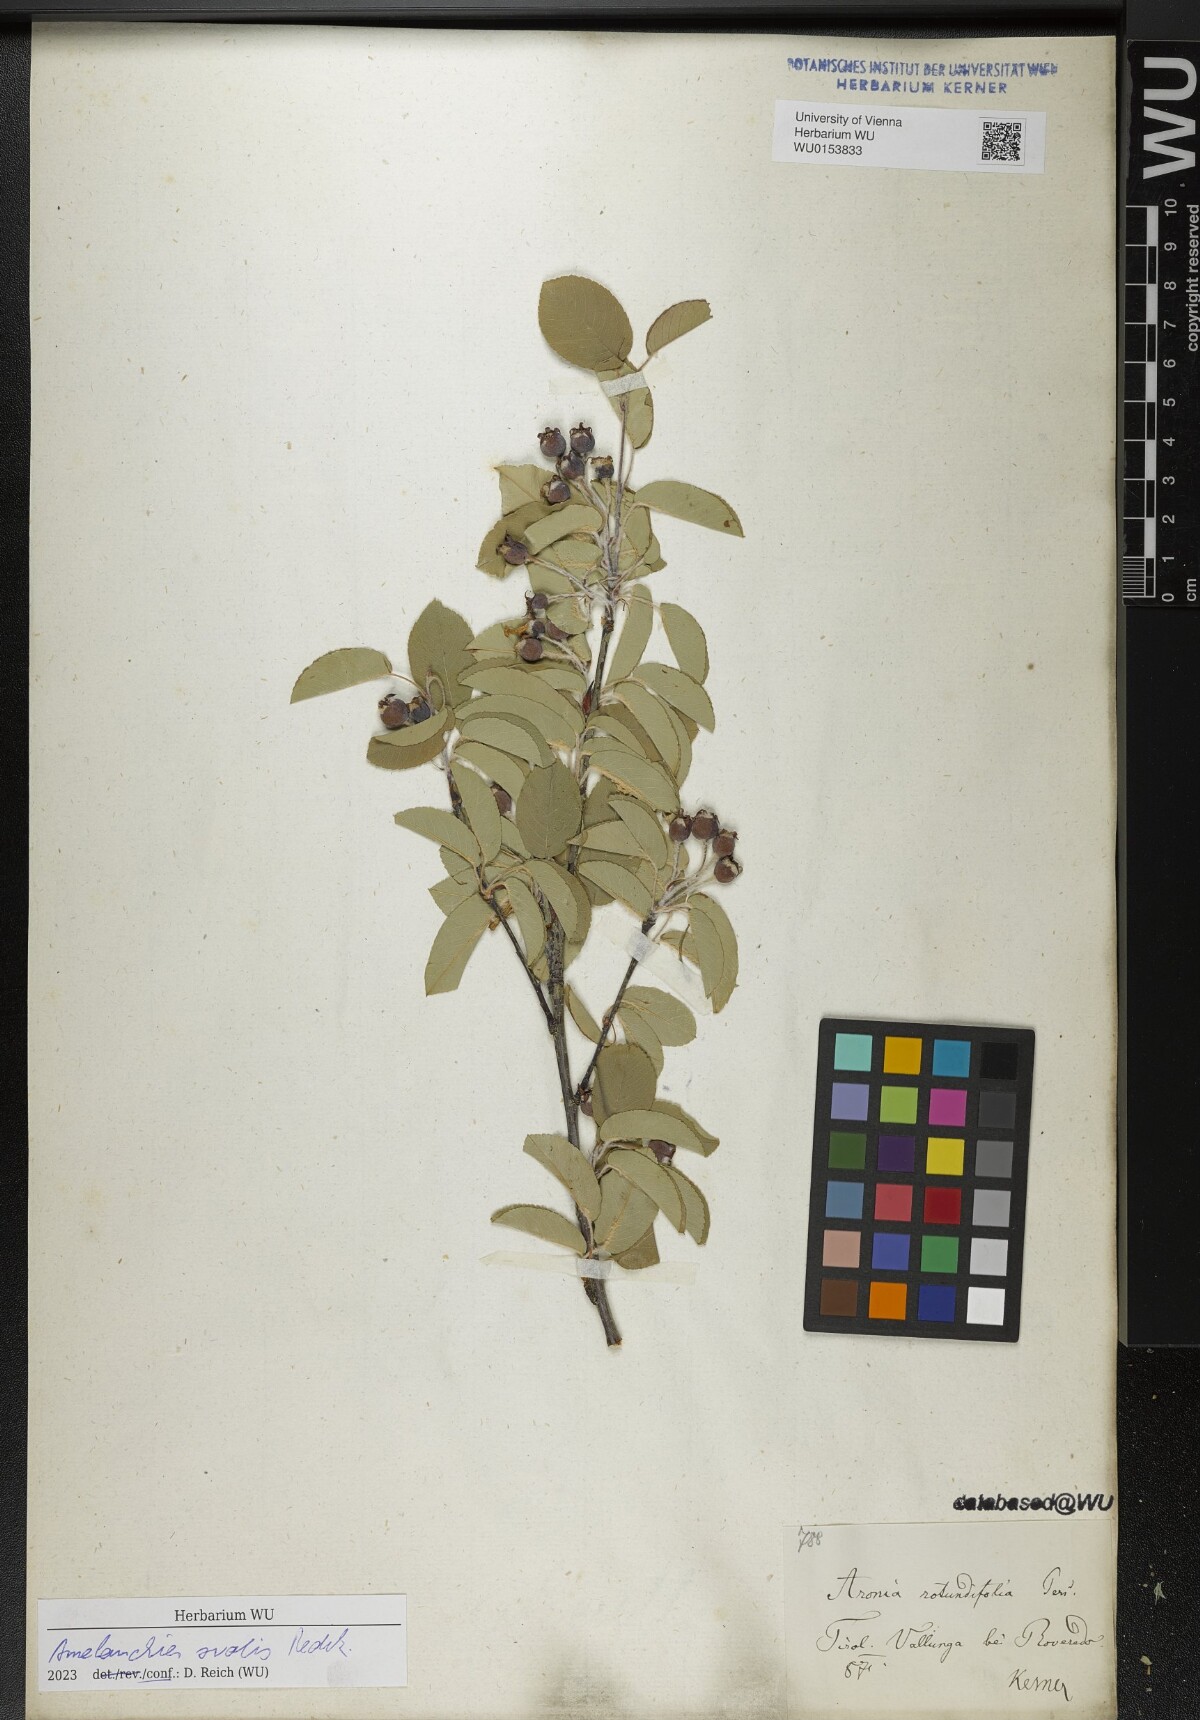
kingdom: Plantae
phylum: Tracheophyta
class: Magnoliopsida
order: Rosales
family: Rosaceae
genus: Amelanchier
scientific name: Amelanchier ovalis
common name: Serviceberry
